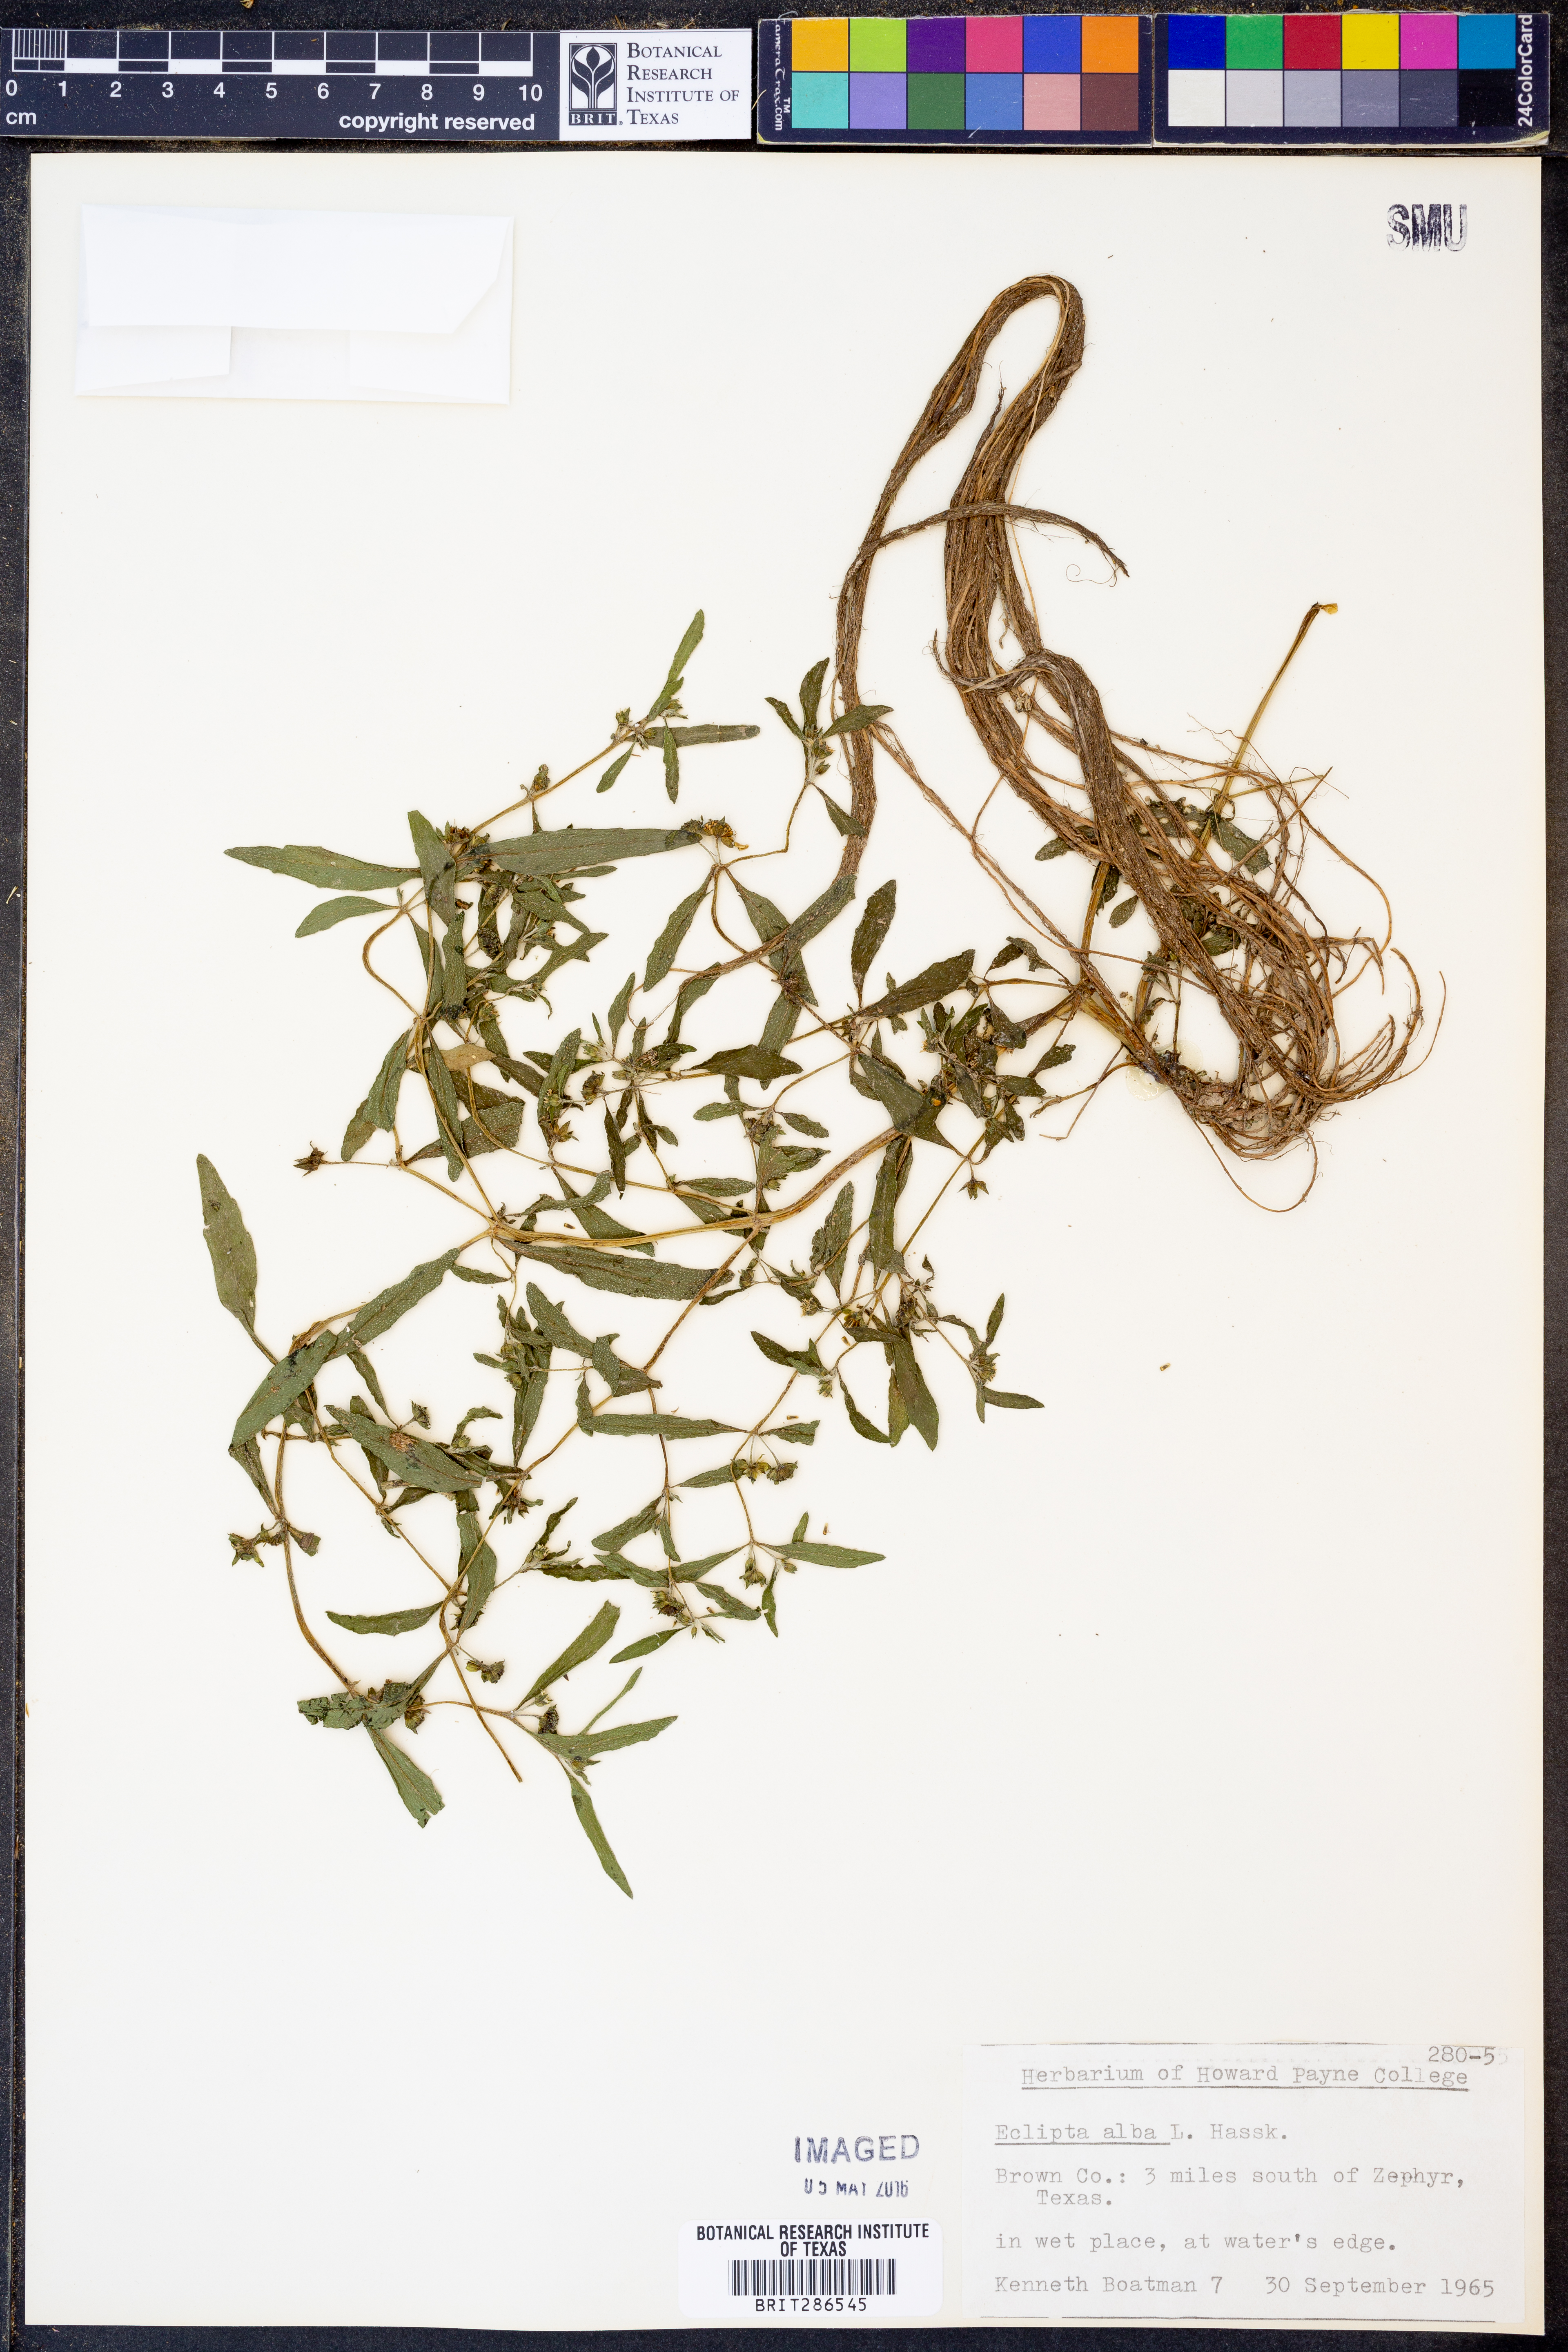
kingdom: Plantae
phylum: Tracheophyta
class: Magnoliopsida
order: Asterales
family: Asteraceae
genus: Eclipta
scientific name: Eclipta alba
